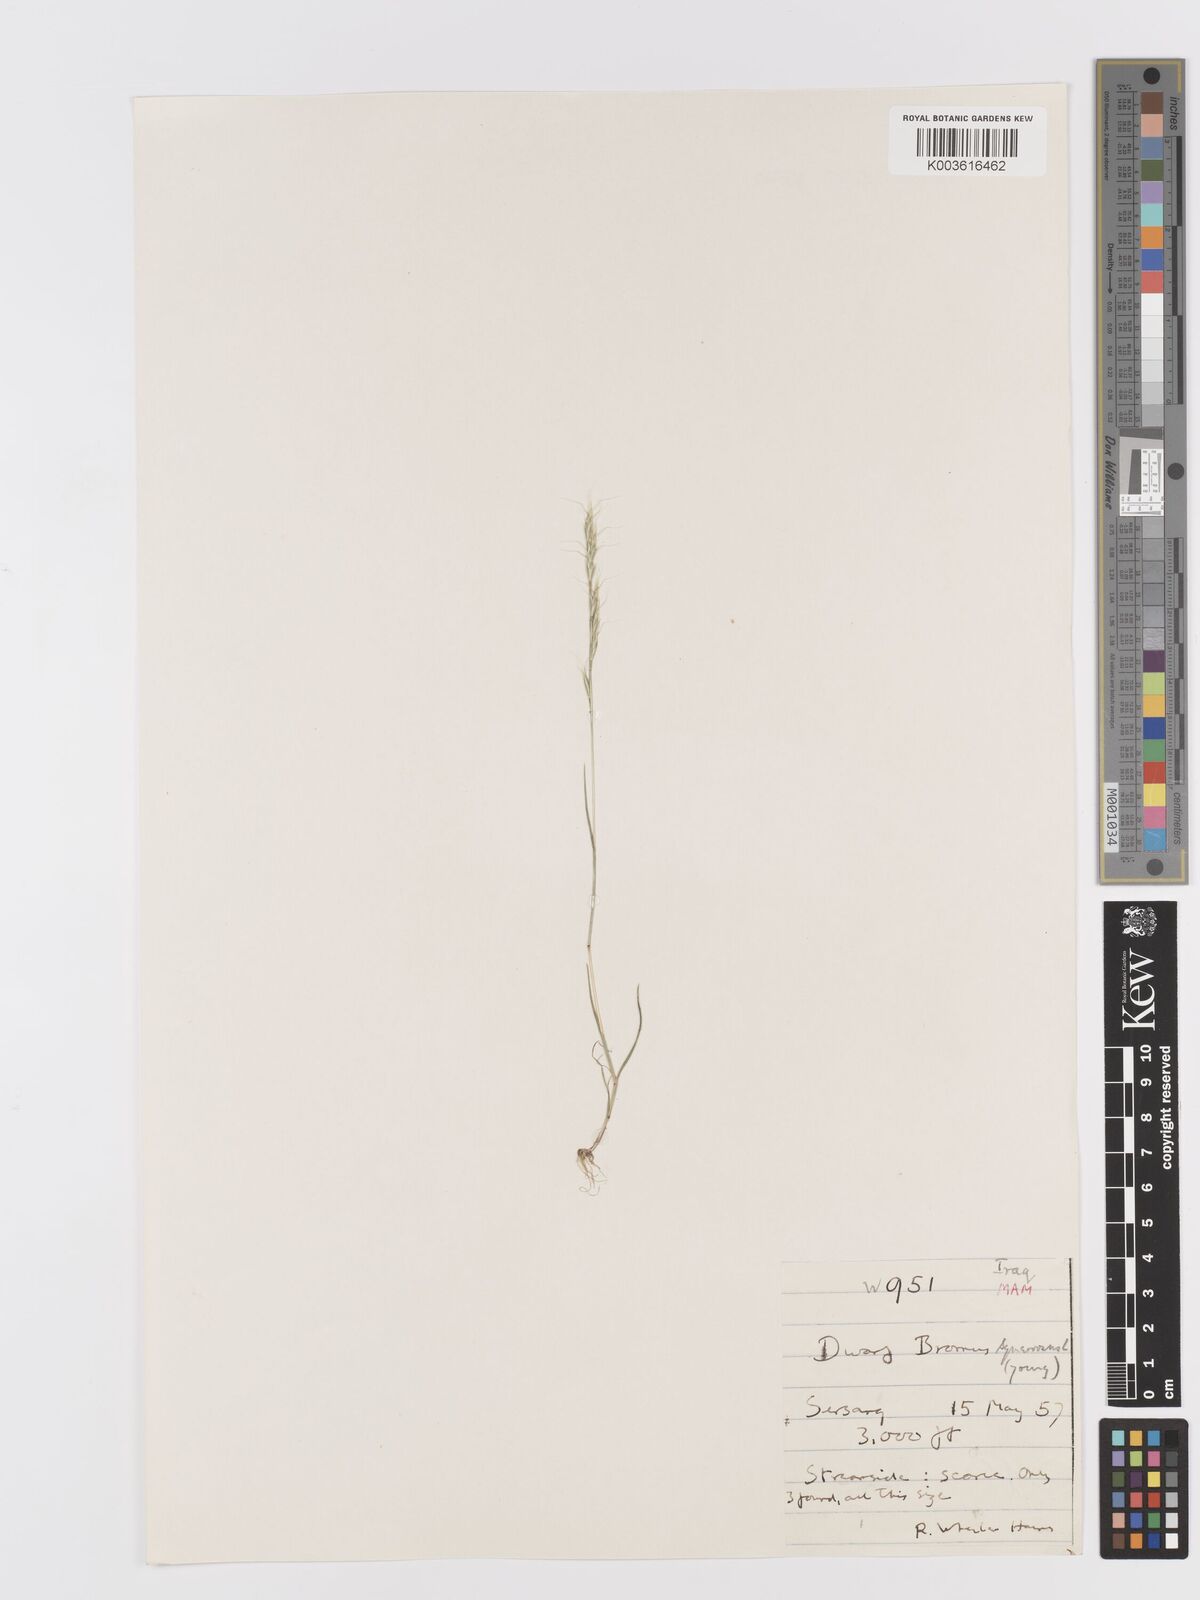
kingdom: Plantae
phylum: Tracheophyta
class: Liliopsida
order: Poales
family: Poaceae
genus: Ventenata
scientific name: Ventenata macra
